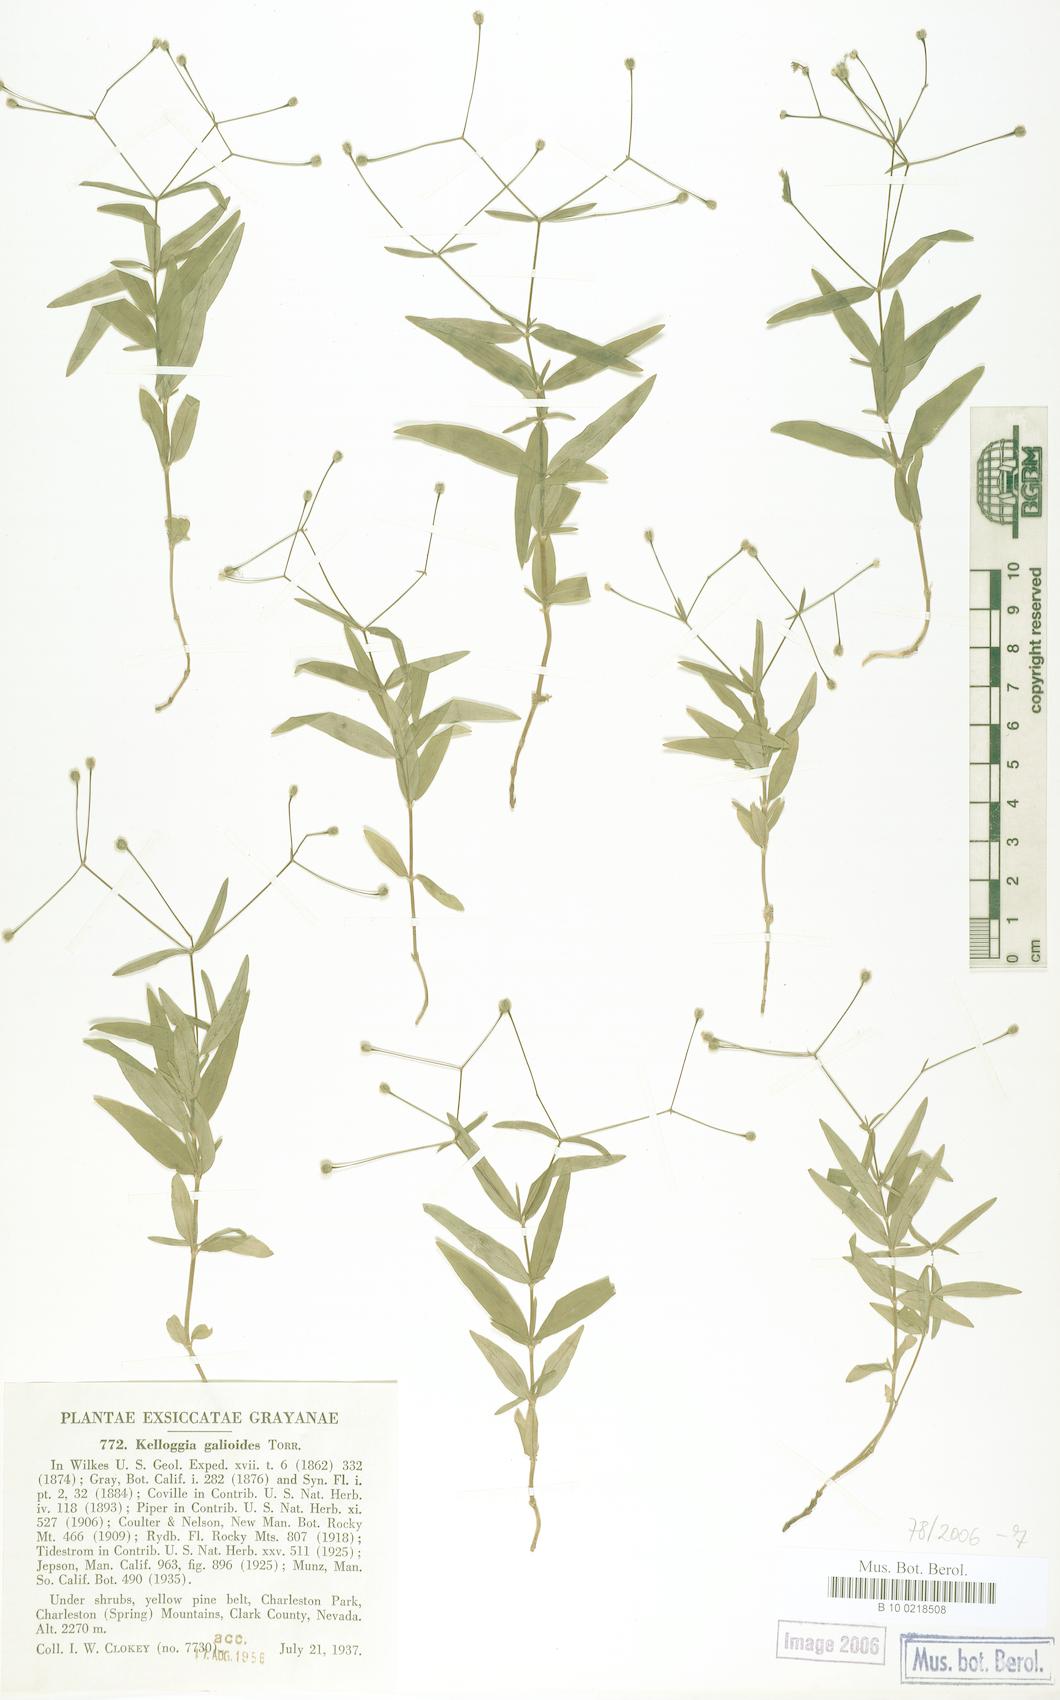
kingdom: Plantae
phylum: Tracheophyta
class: Magnoliopsida
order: Gentianales
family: Rubiaceae
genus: Kelloggia
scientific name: Kelloggia galioides
